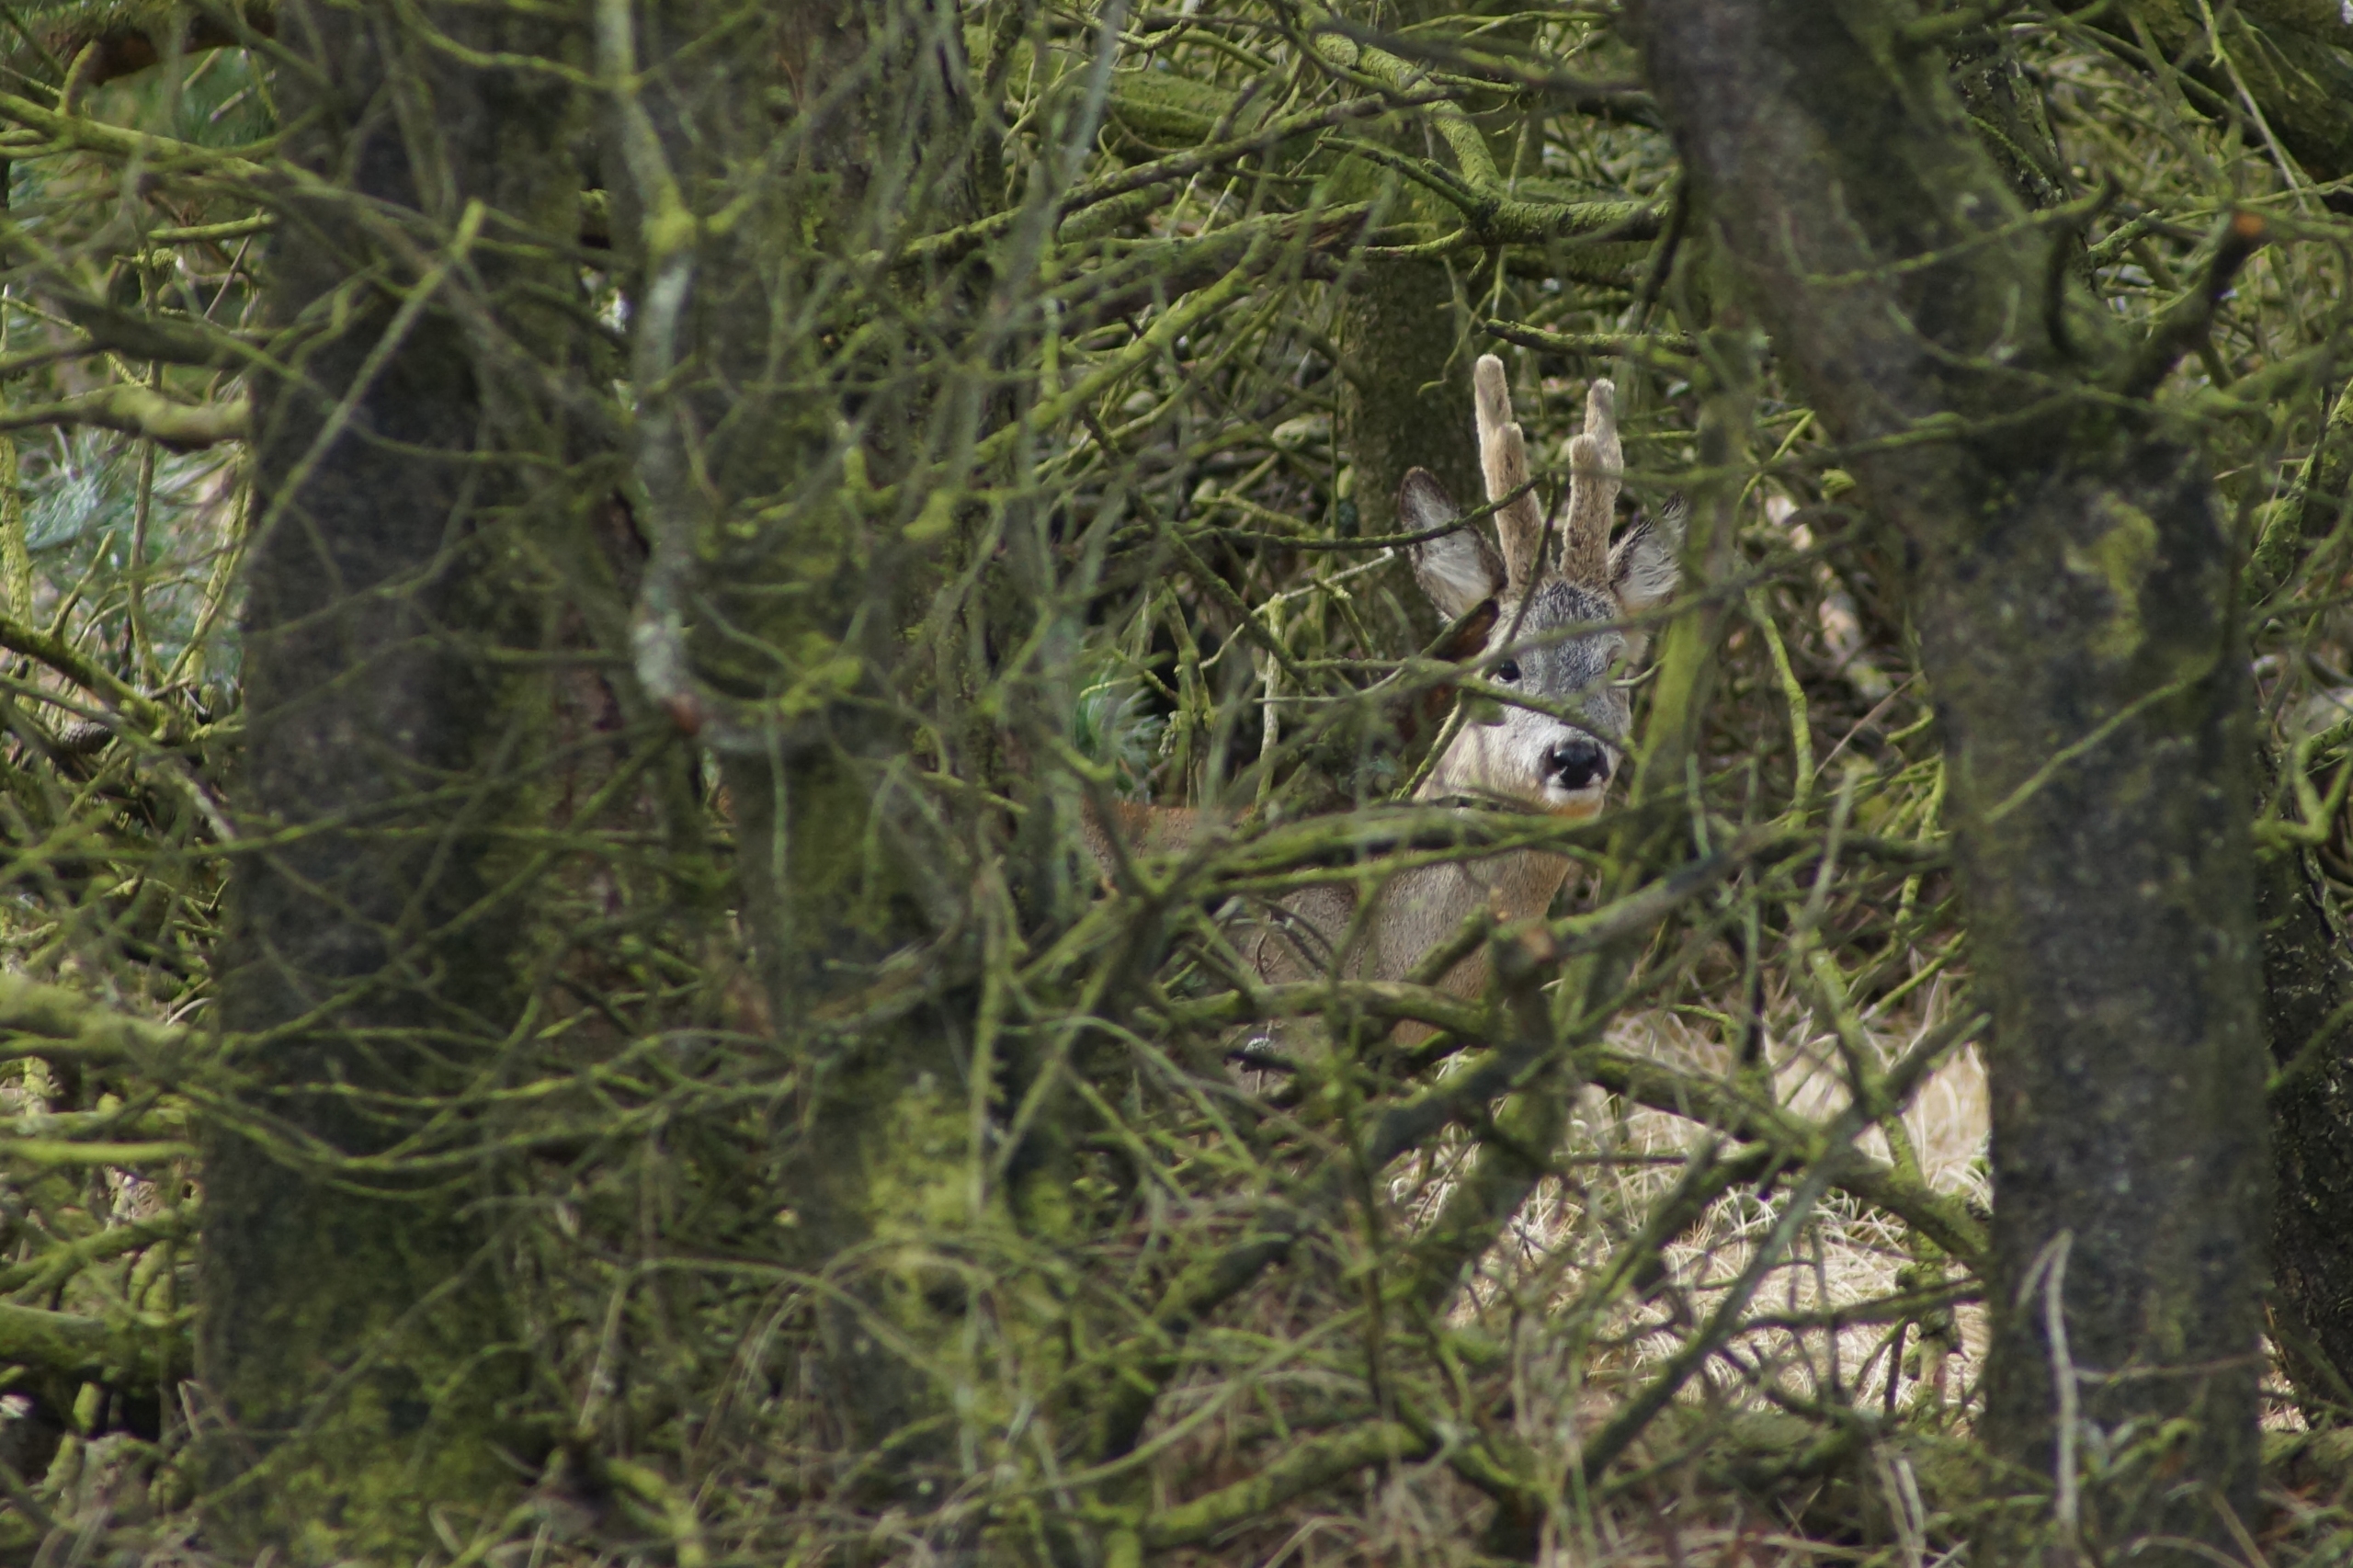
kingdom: Animalia
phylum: Chordata
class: Mammalia
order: Artiodactyla
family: Cervidae
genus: Capreolus
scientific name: Capreolus capreolus
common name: Rådyr
